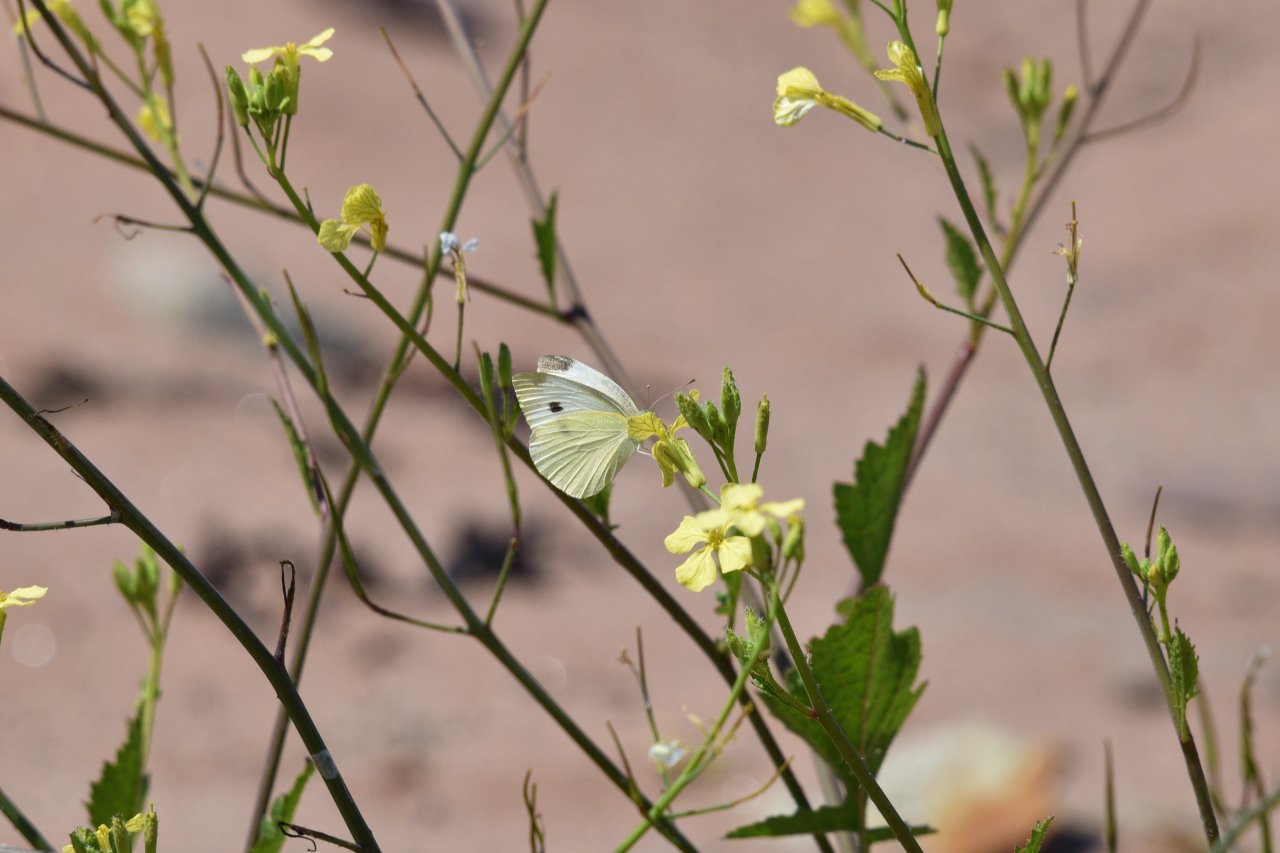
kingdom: Animalia
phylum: Arthropoda
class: Insecta
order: Lepidoptera
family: Pieridae
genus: Pieris
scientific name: Pieris rapae
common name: Cabbage White
